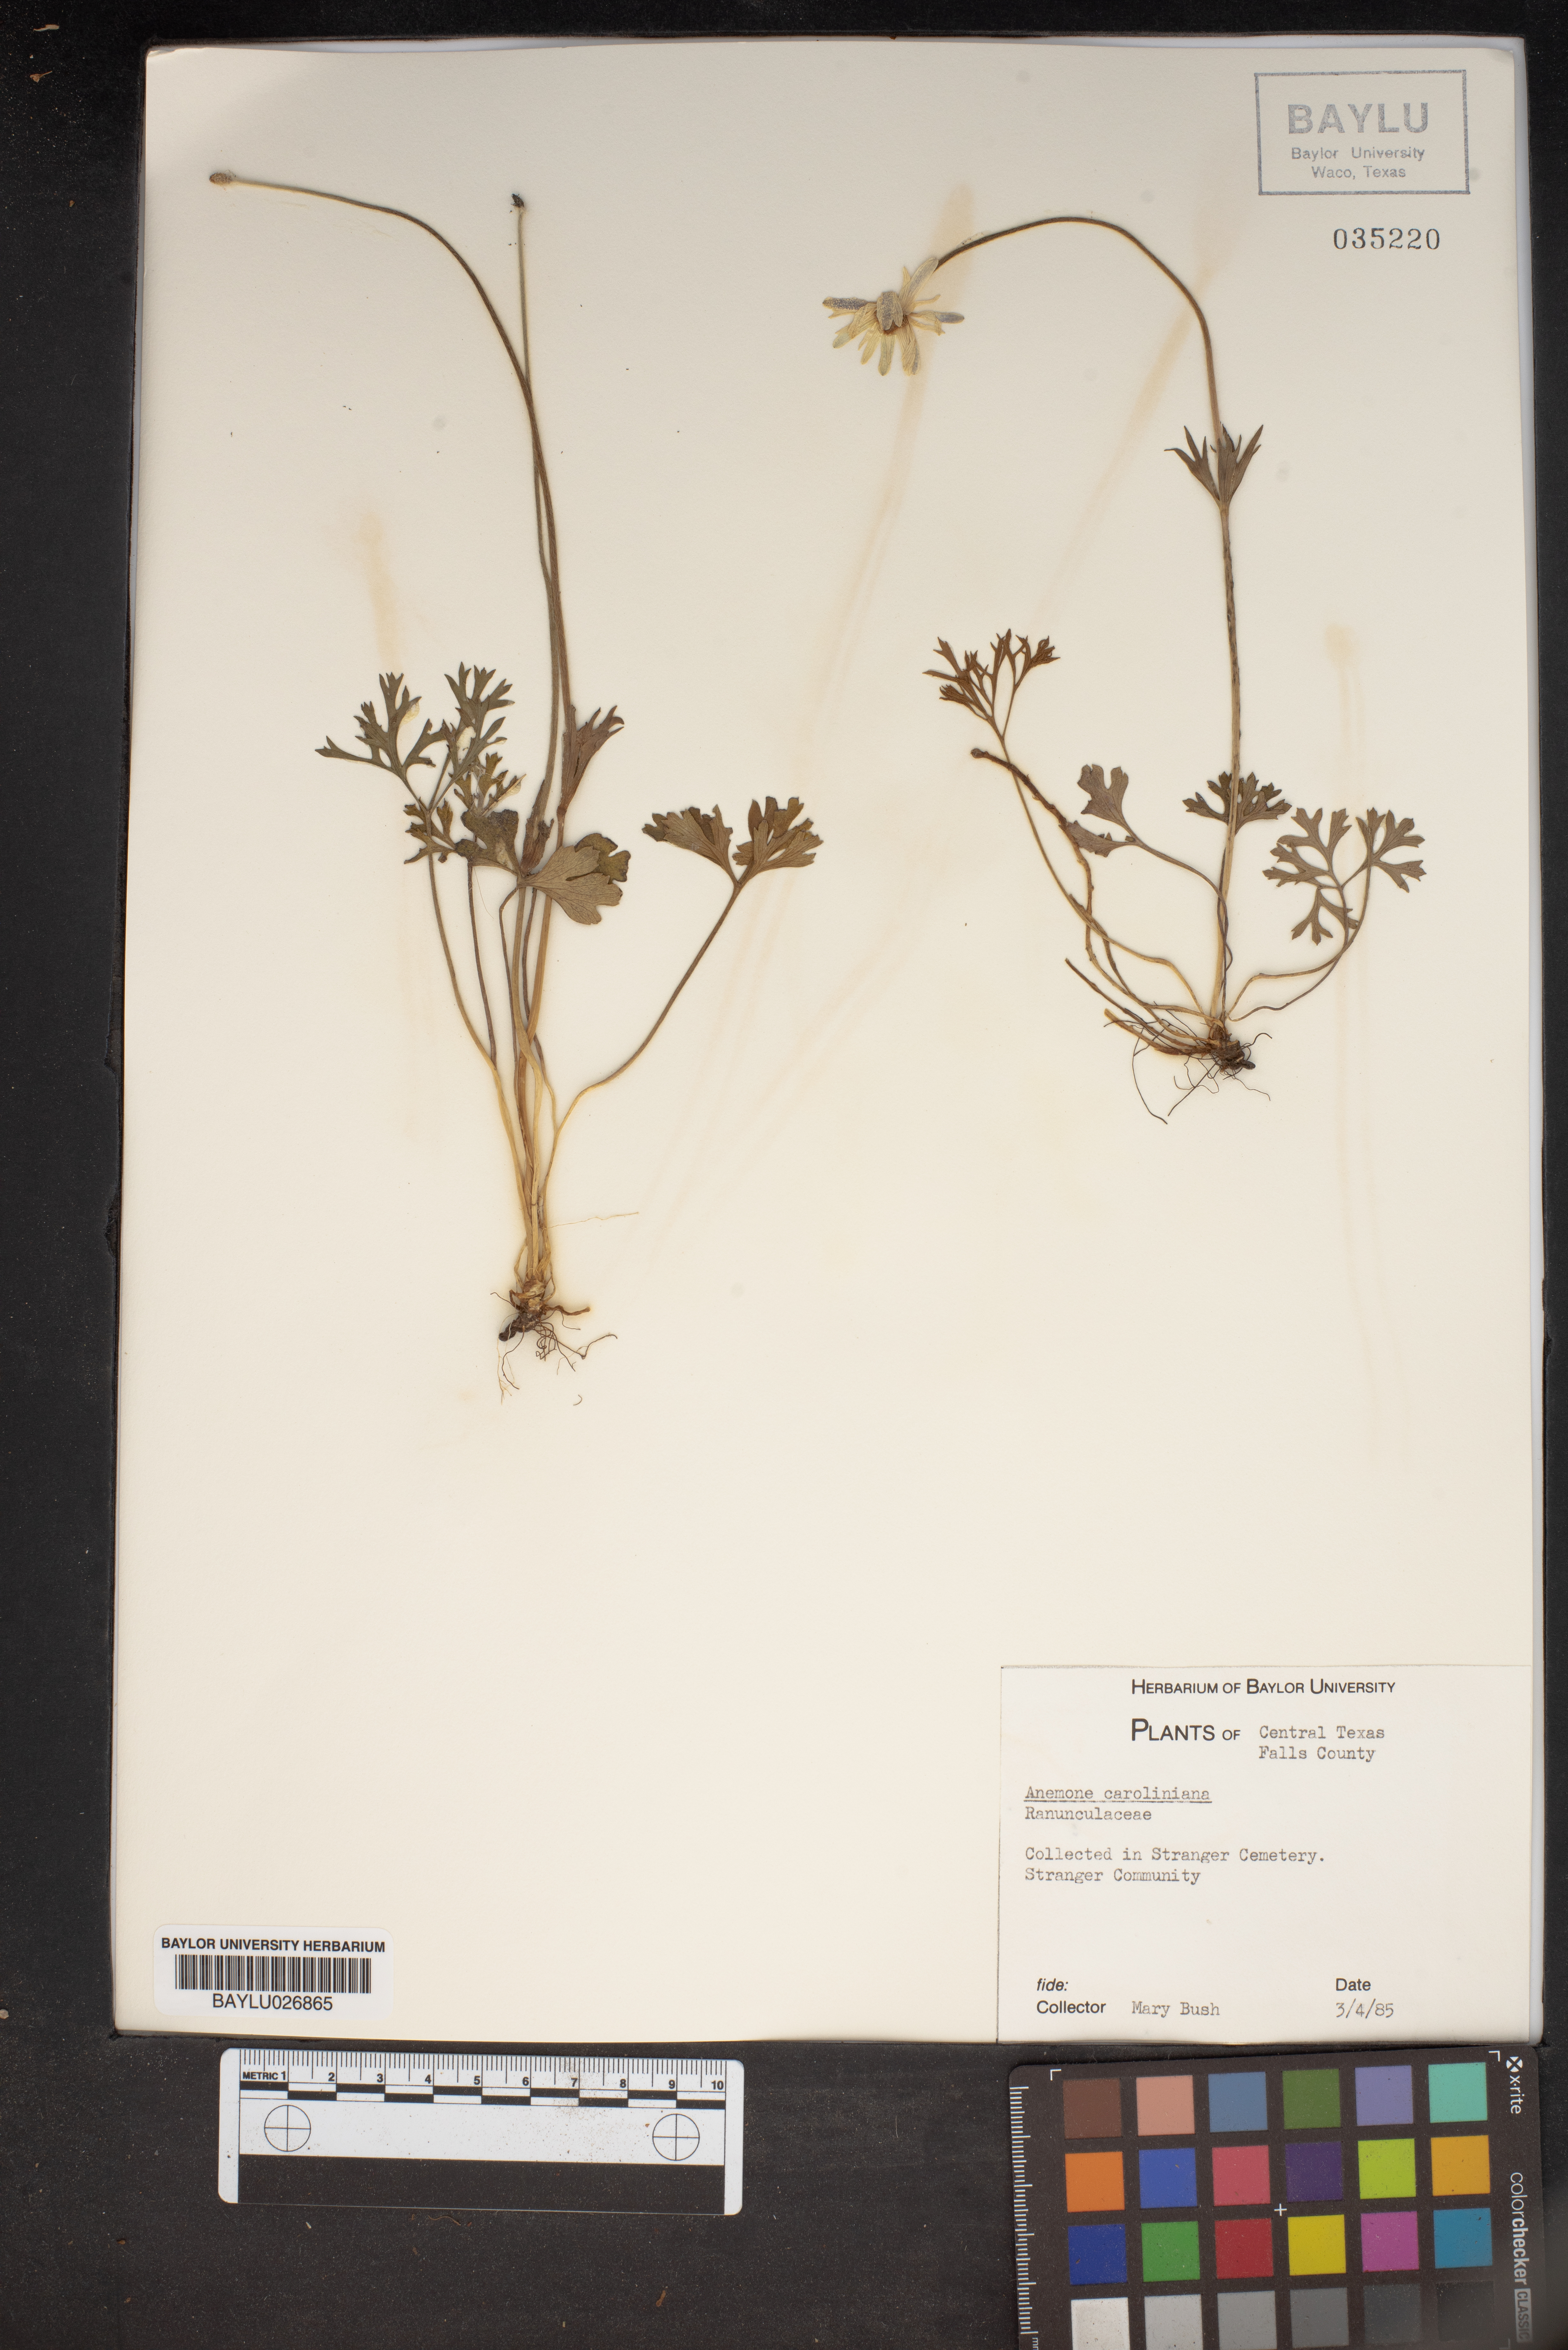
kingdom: Plantae
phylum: Tracheophyta
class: Magnoliopsida
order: Ranunculales
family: Ranunculaceae
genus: Anemone
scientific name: Anemone caroliniana
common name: Carolina anemone
